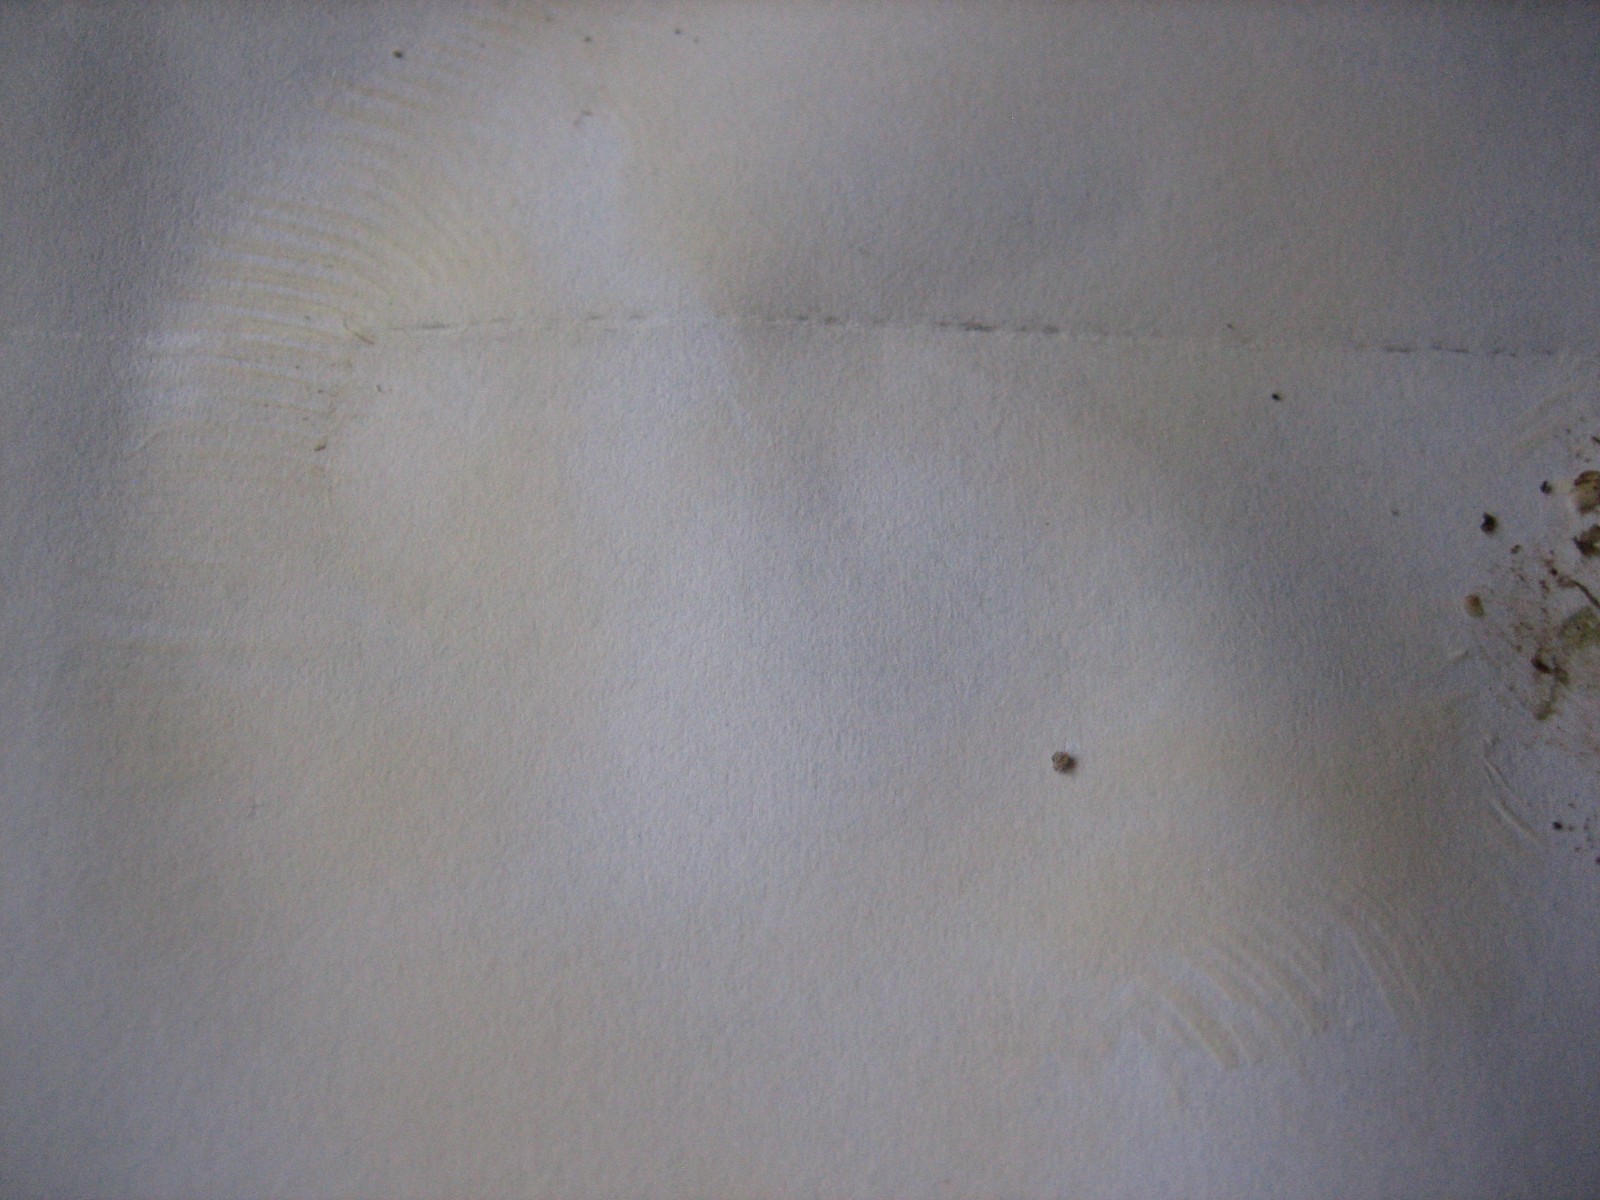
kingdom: Fungi
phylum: Basidiomycota
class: Agaricomycetes
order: Russulales
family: Russulaceae
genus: Russula
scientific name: Russula
